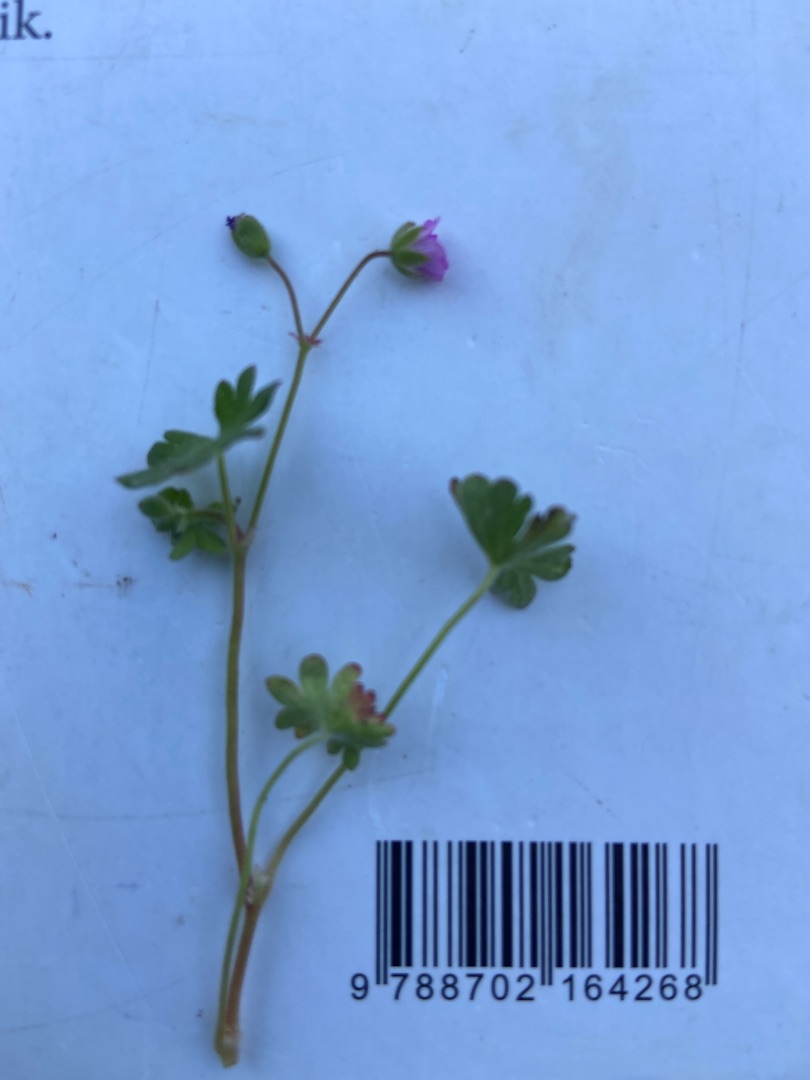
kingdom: Plantae
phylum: Tracheophyta
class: Magnoliopsida
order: Geraniales
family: Geraniaceae
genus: Geranium
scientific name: Geranium molle
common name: Blød storkenæb
